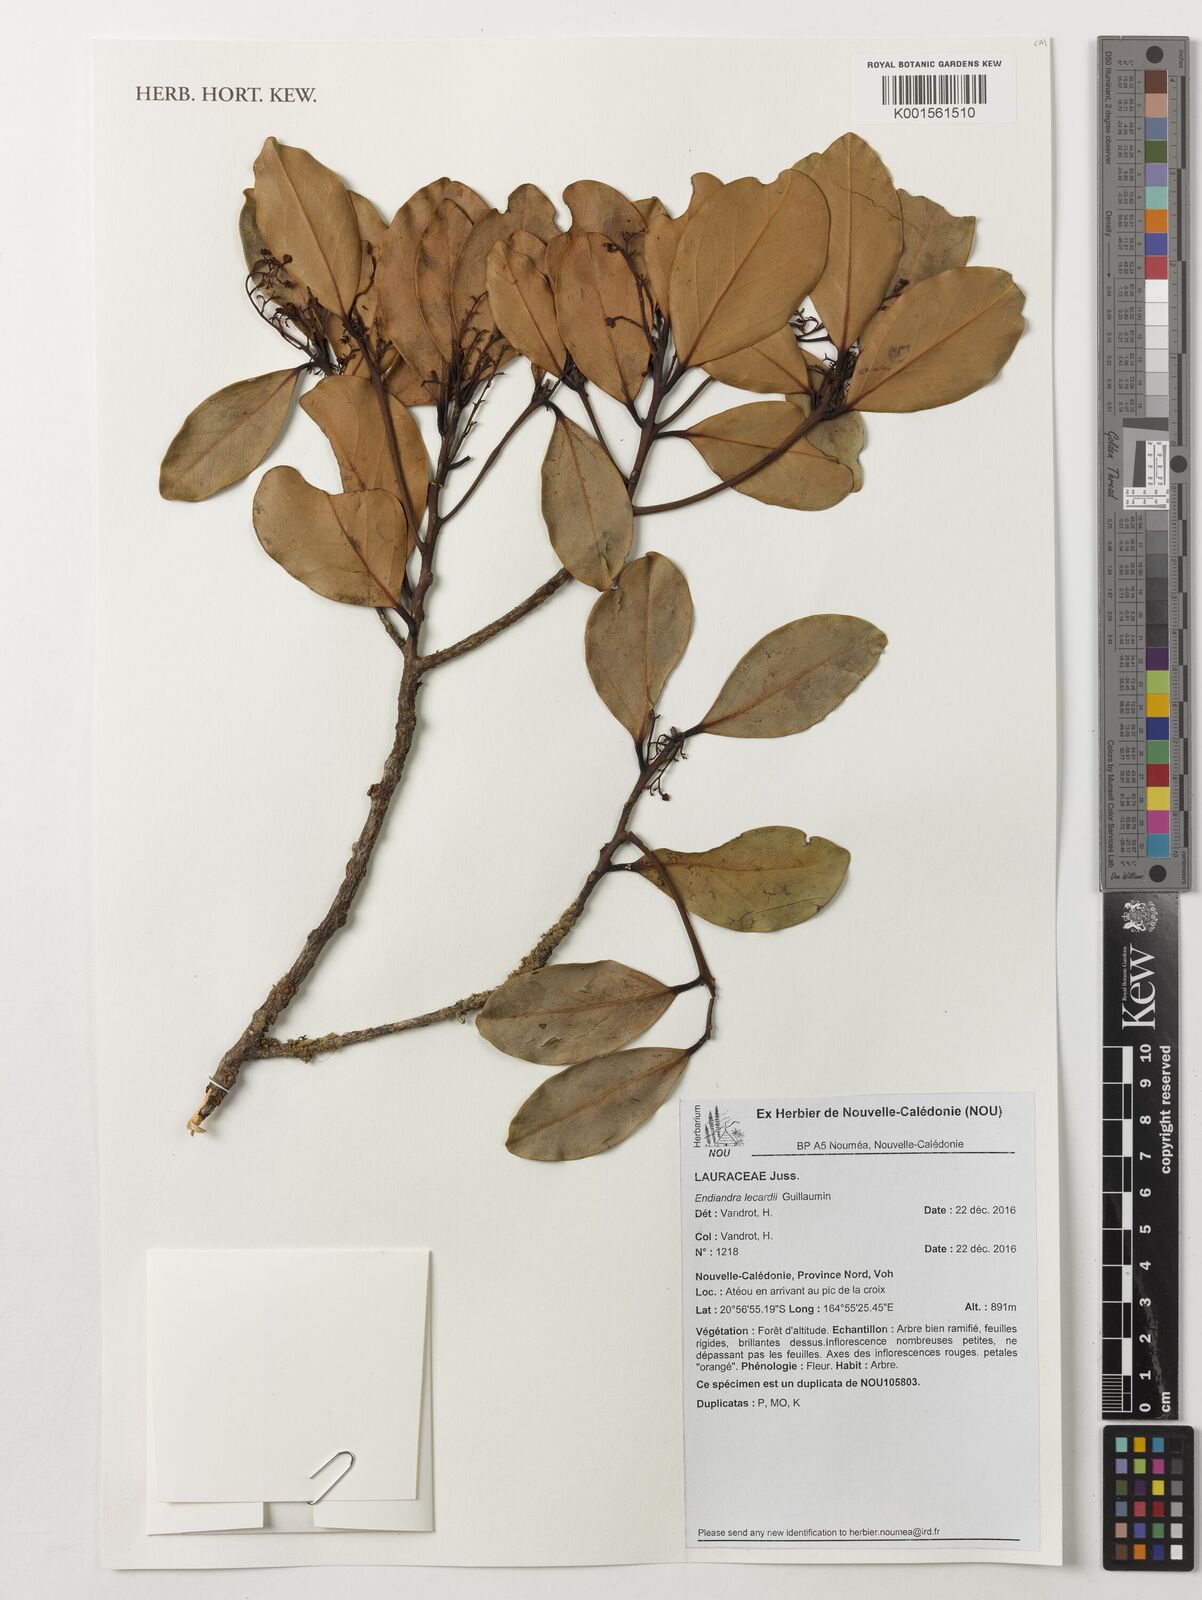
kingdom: Plantae
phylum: Tracheophyta
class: Magnoliopsida
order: Laurales
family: Lauraceae
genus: Endiandra
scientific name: Endiandra lecardii
